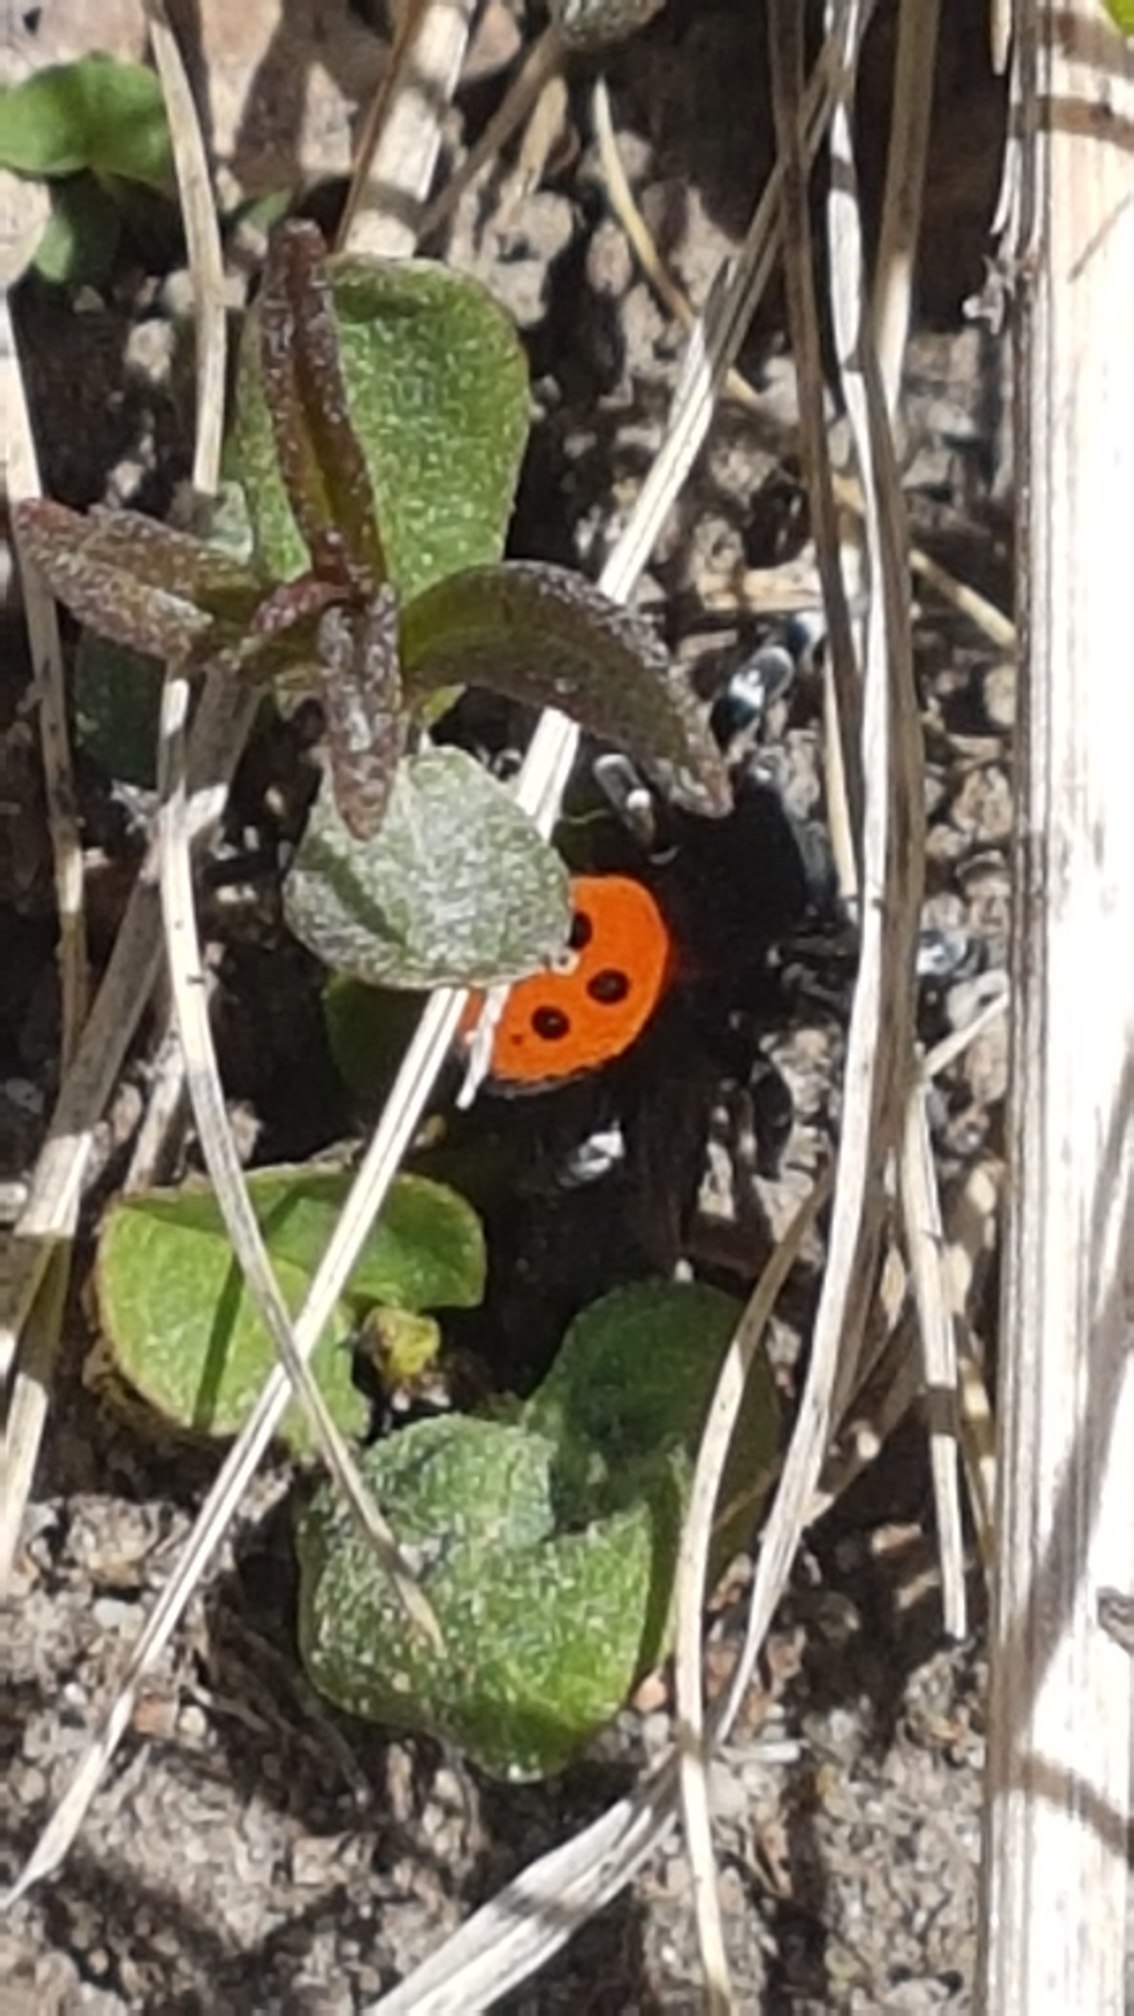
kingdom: Animalia
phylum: Arthropoda
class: Arachnida
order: Araneae
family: Eresidae
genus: Eresus
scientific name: Eresus sandaliatus
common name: Mariehøneedderkop
